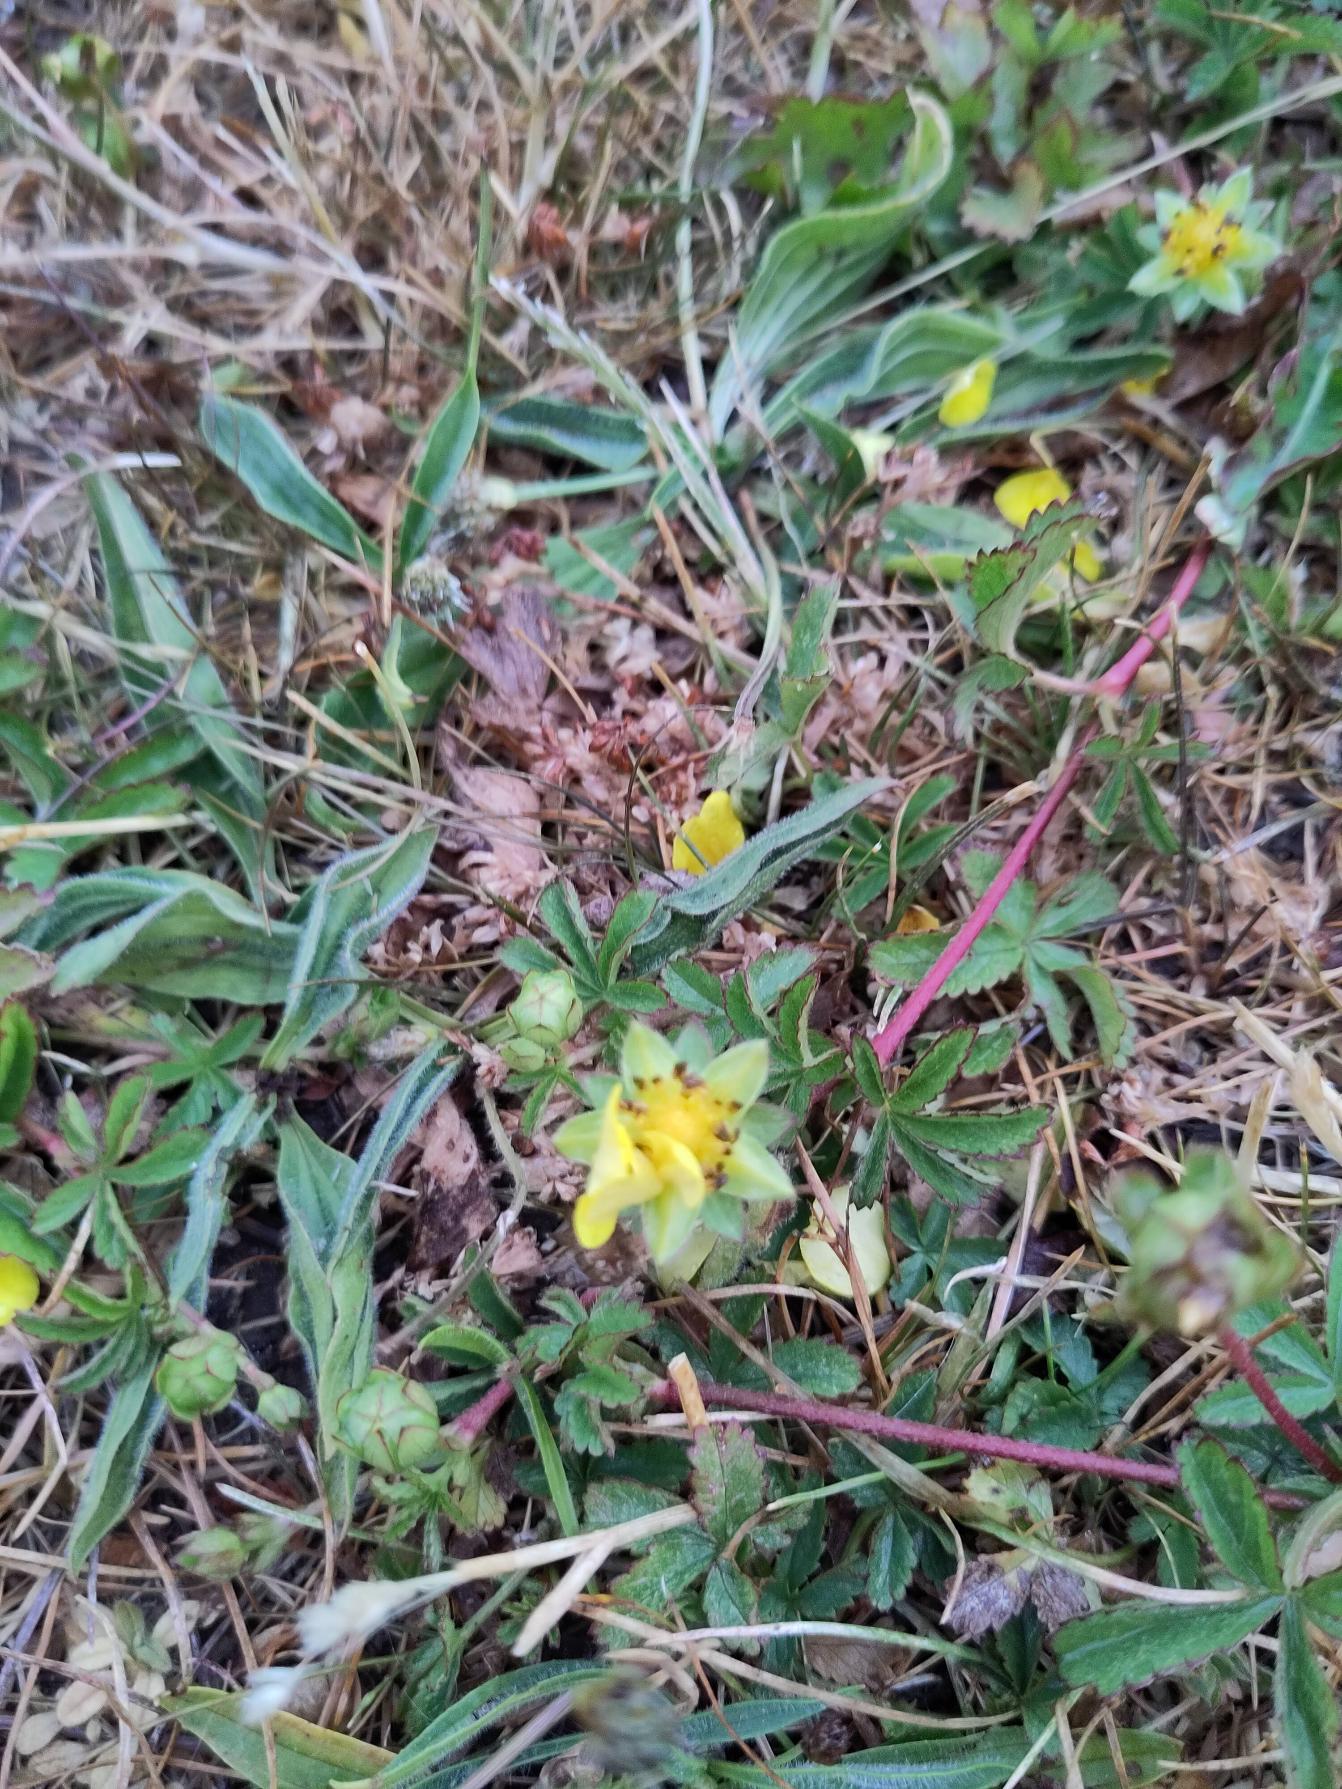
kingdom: Plantae
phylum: Tracheophyta
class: Magnoliopsida
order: Rosales
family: Rosaceae
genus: Potentilla
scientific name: Potentilla reptans
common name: Krybende potentil
